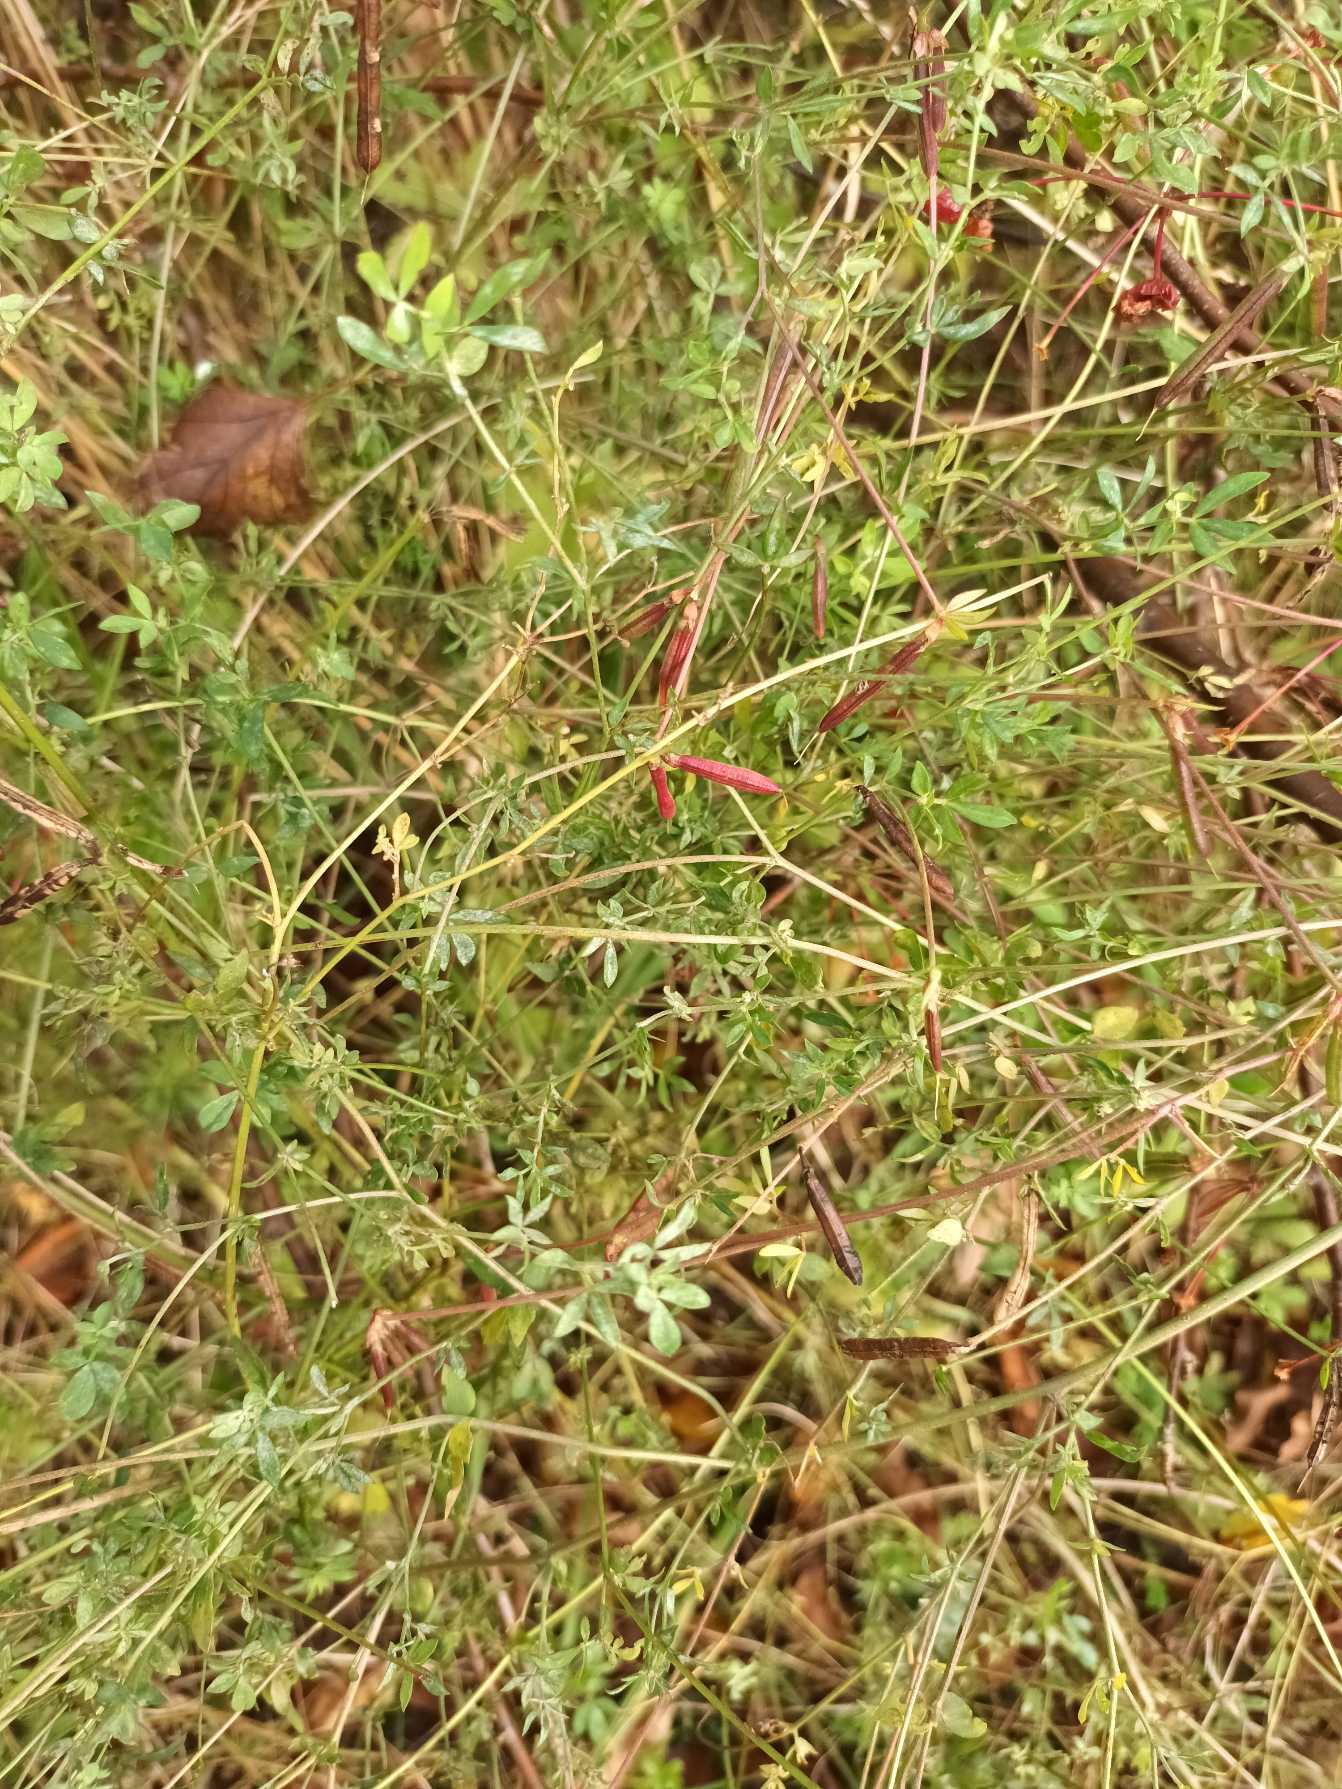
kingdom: Plantae
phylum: Tracheophyta
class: Magnoliopsida
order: Fabales
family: Fabaceae
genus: Lotus
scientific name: Lotus corniculatus
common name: Almindelig kællingetand
